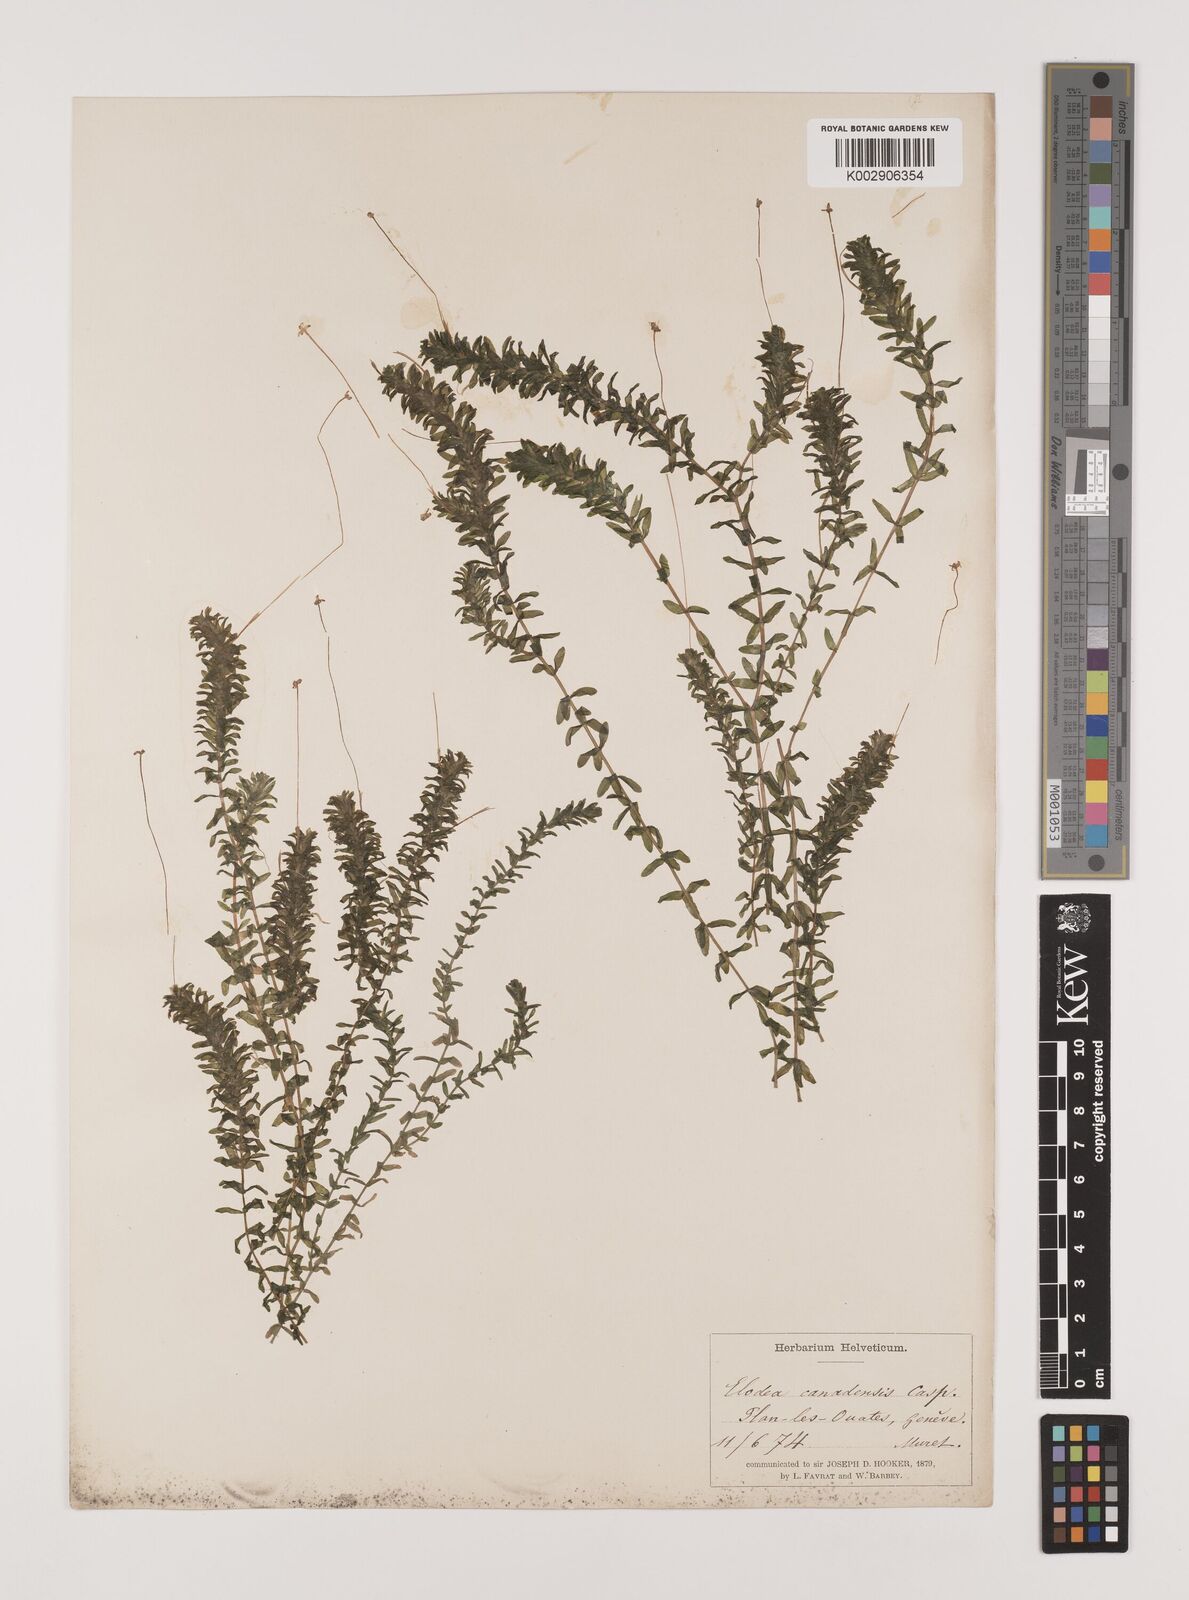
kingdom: Plantae
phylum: Tracheophyta
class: Liliopsida
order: Alismatales
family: Hydrocharitaceae
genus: Elodea
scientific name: Elodea canadensis
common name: Canadian waterweed
